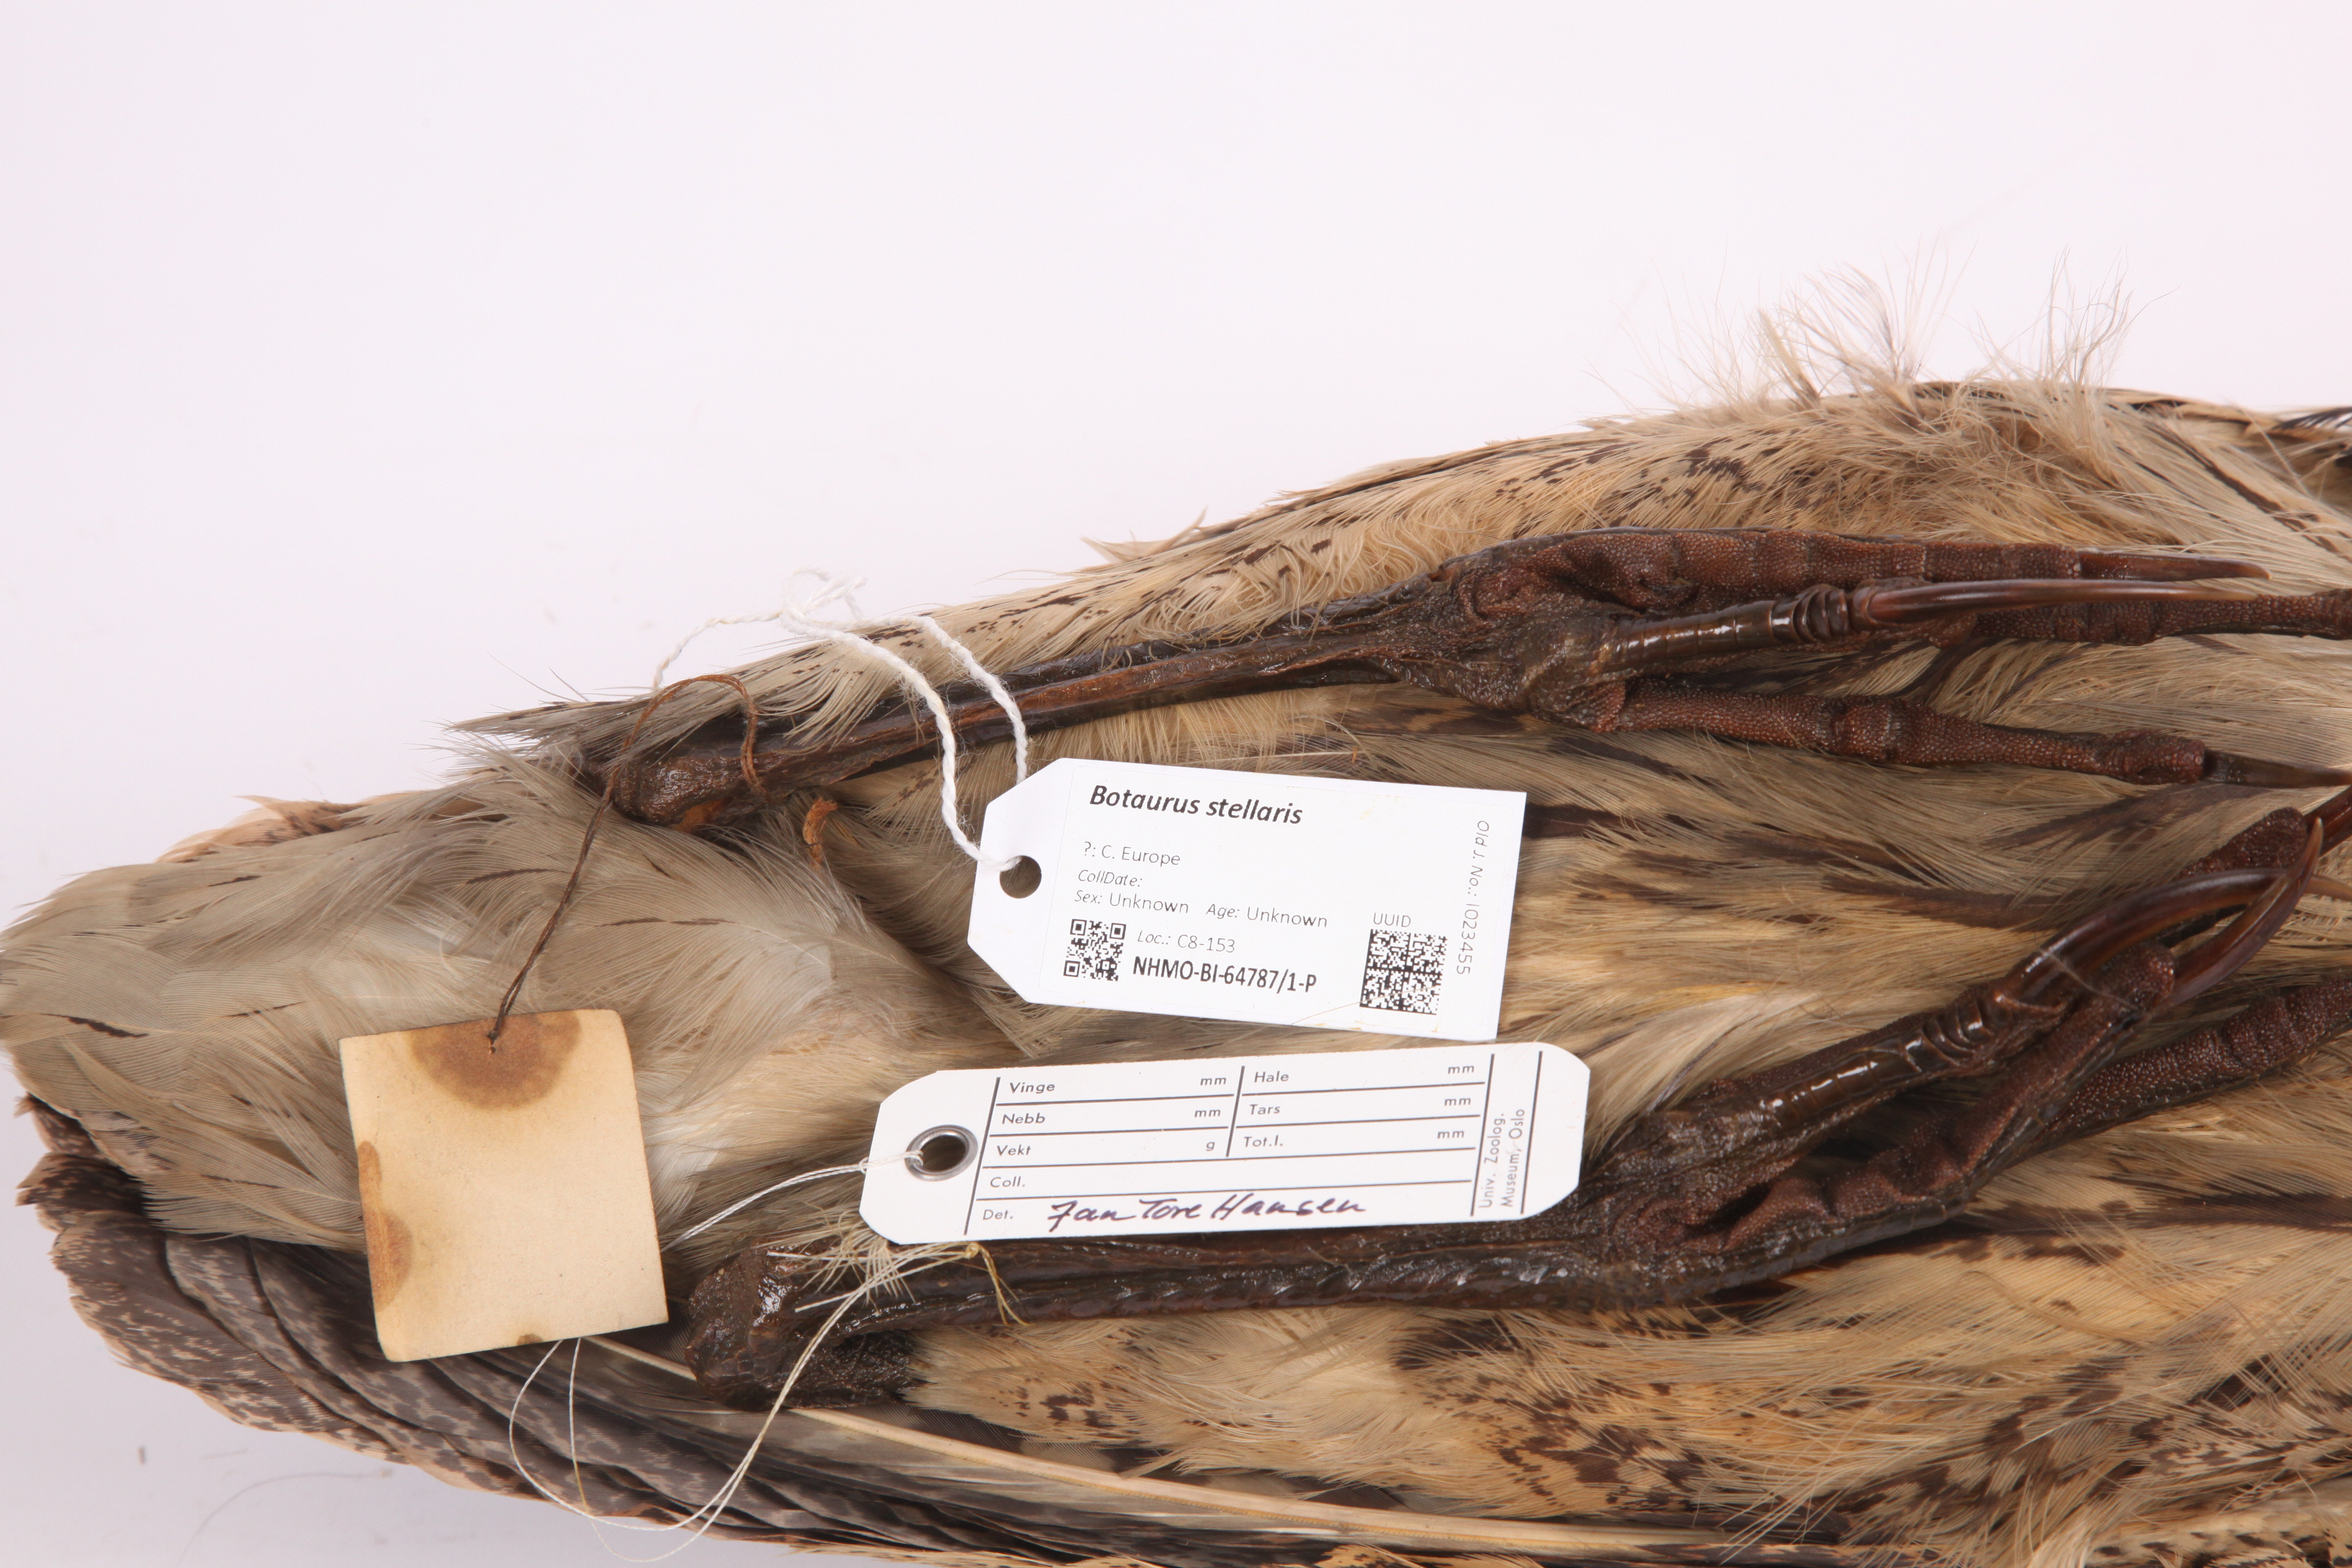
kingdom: Animalia
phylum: Chordata
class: Aves
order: Pelecaniformes
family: Ardeidae
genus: Botaurus
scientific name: Botaurus stellaris
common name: Eurasian bittern
